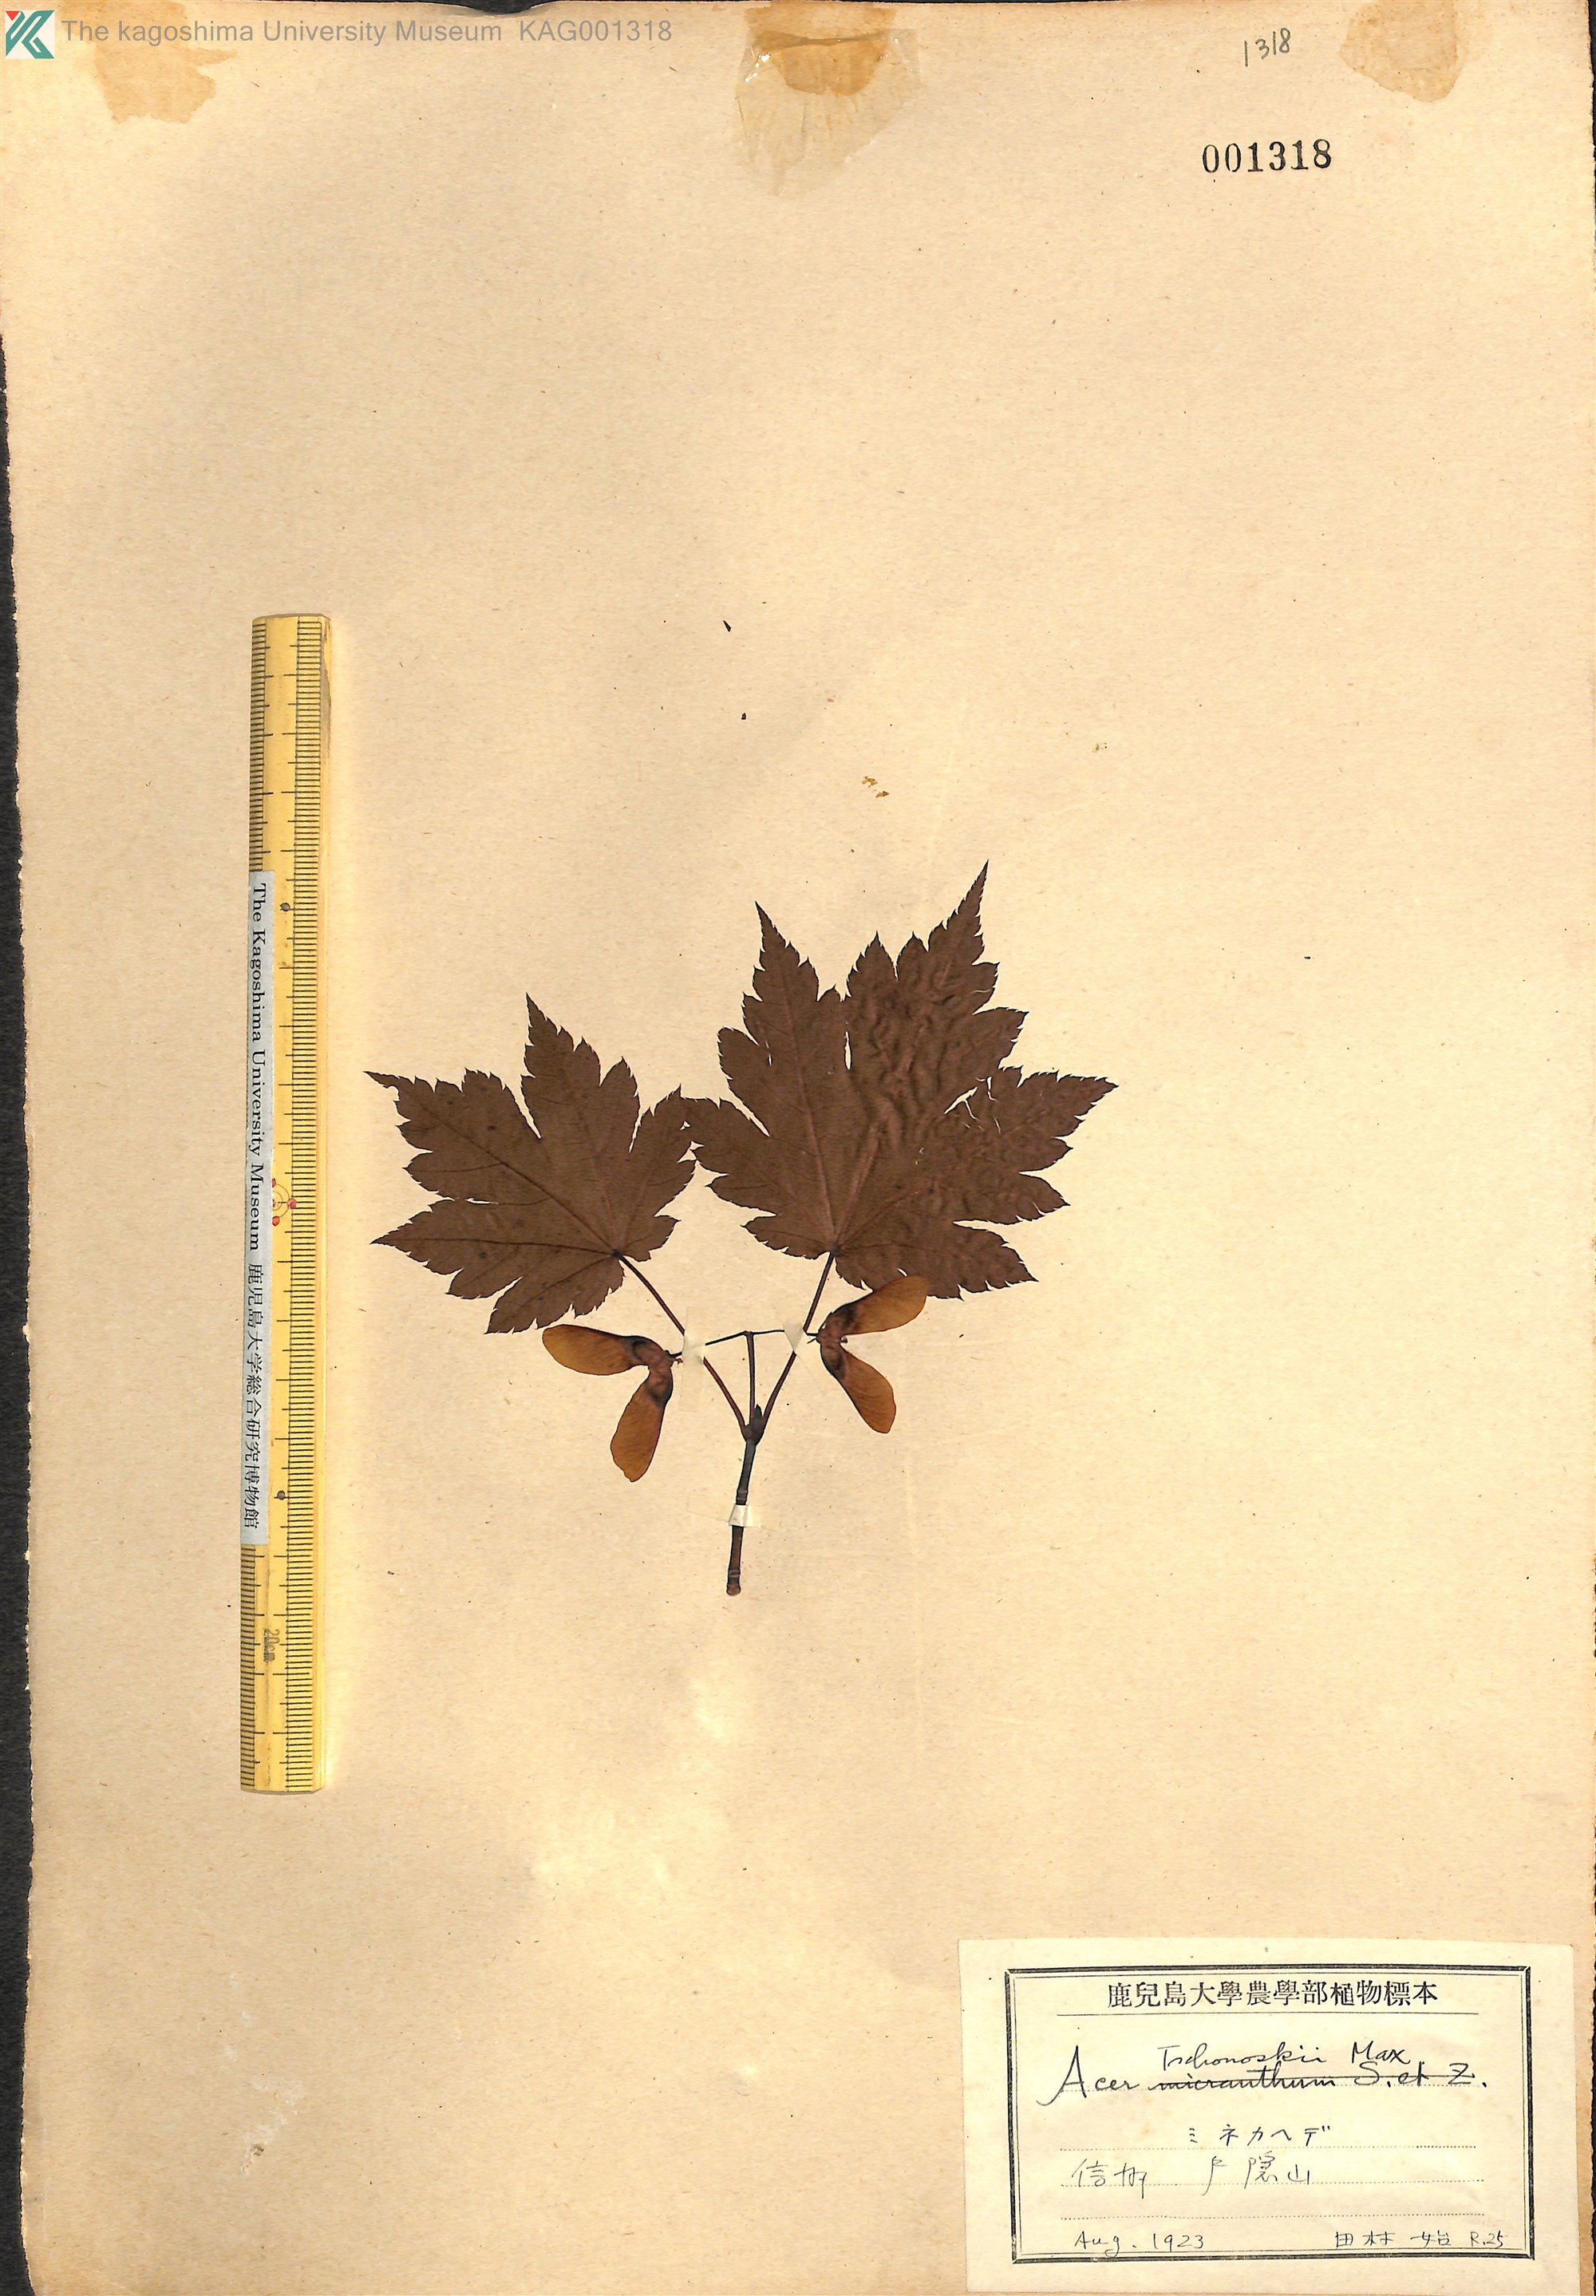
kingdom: Plantae
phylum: Tracheophyta
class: Magnoliopsida
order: Sapindales
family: Sapindaceae
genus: Acer
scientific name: Acer tschonoskii
